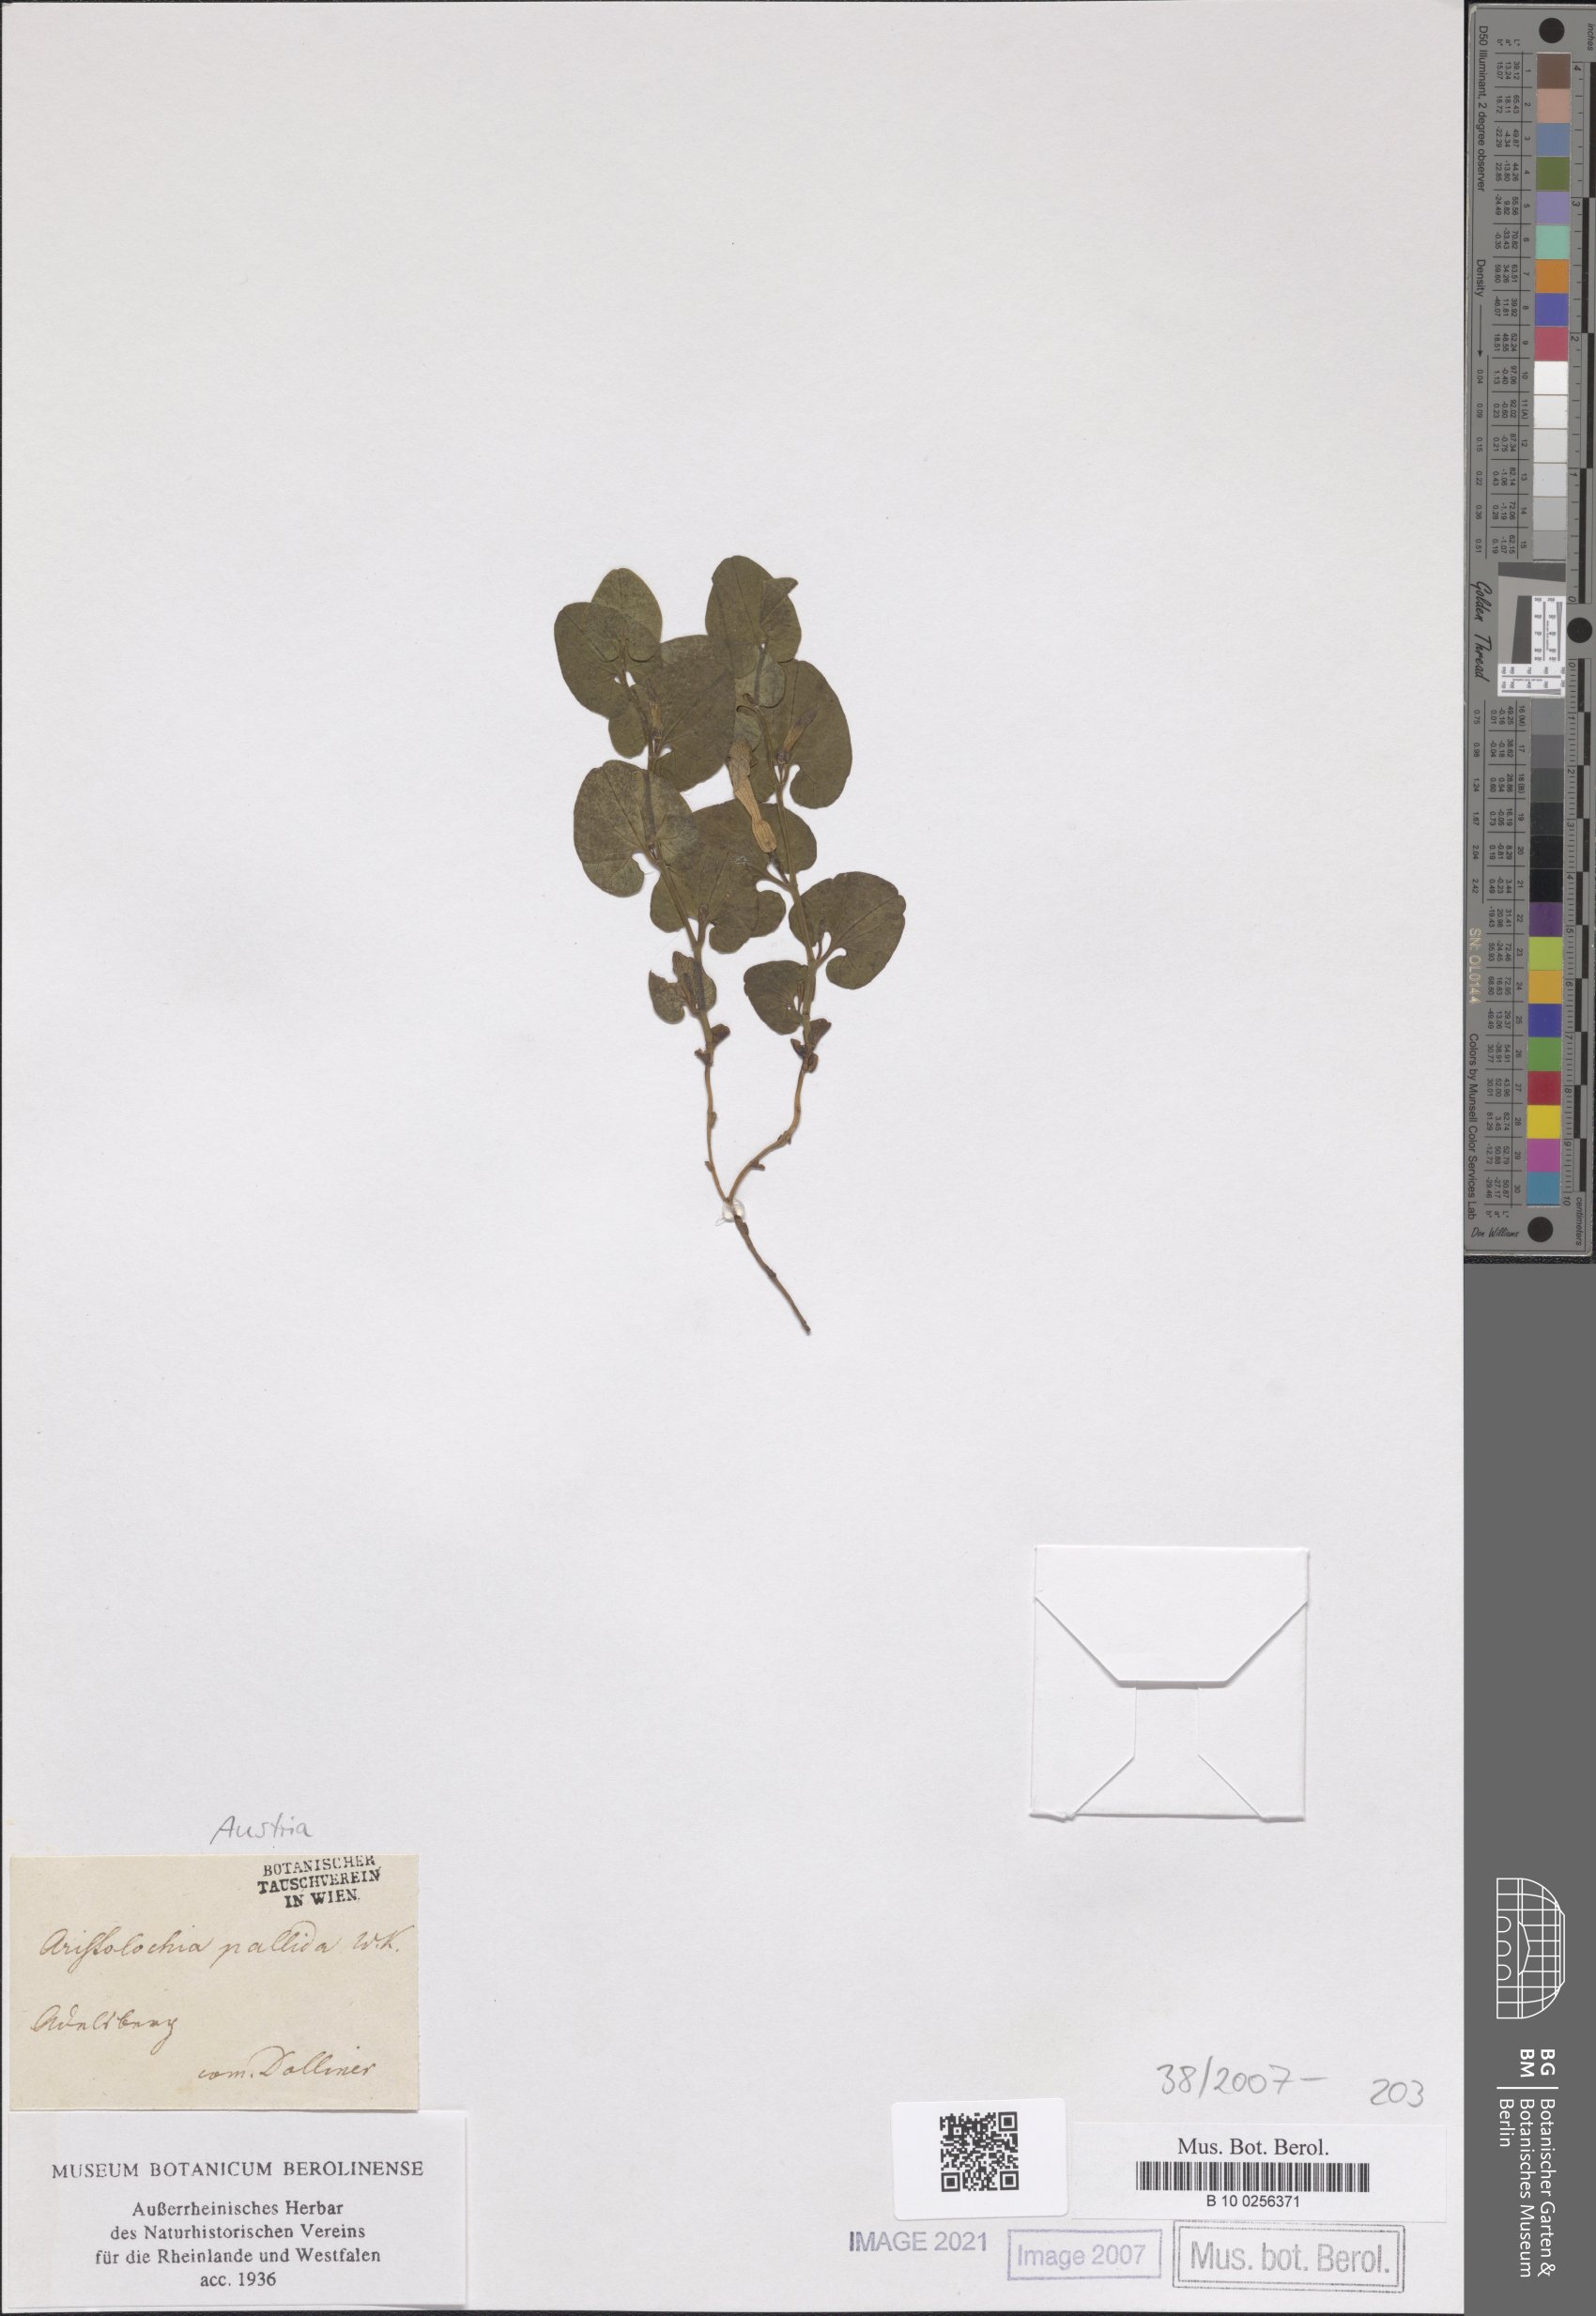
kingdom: Plantae
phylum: Tracheophyta
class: Magnoliopsida
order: Piperales
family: Aristolochiaceae
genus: Aristolochia
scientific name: Aristolochia pallida
